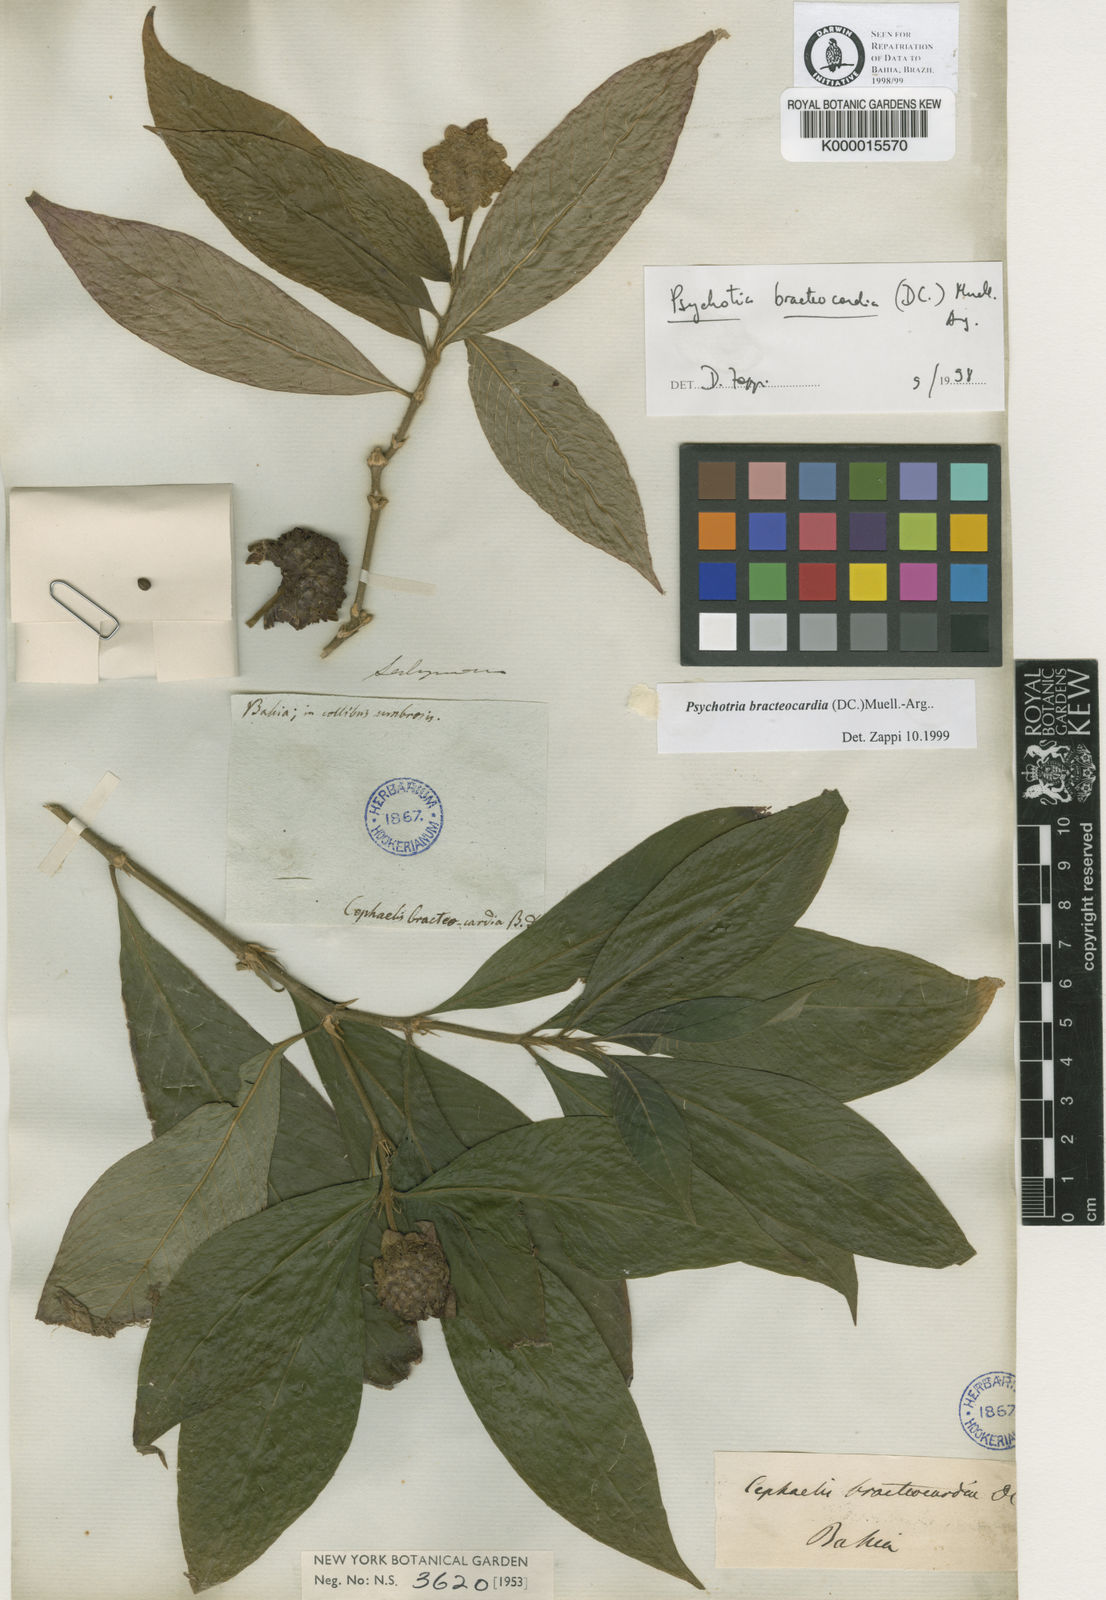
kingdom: Plantae
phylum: Tracheophyta
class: Magnoliopsida
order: Gentianales
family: Rubiaceae
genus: Psychotria
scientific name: Psychotria
